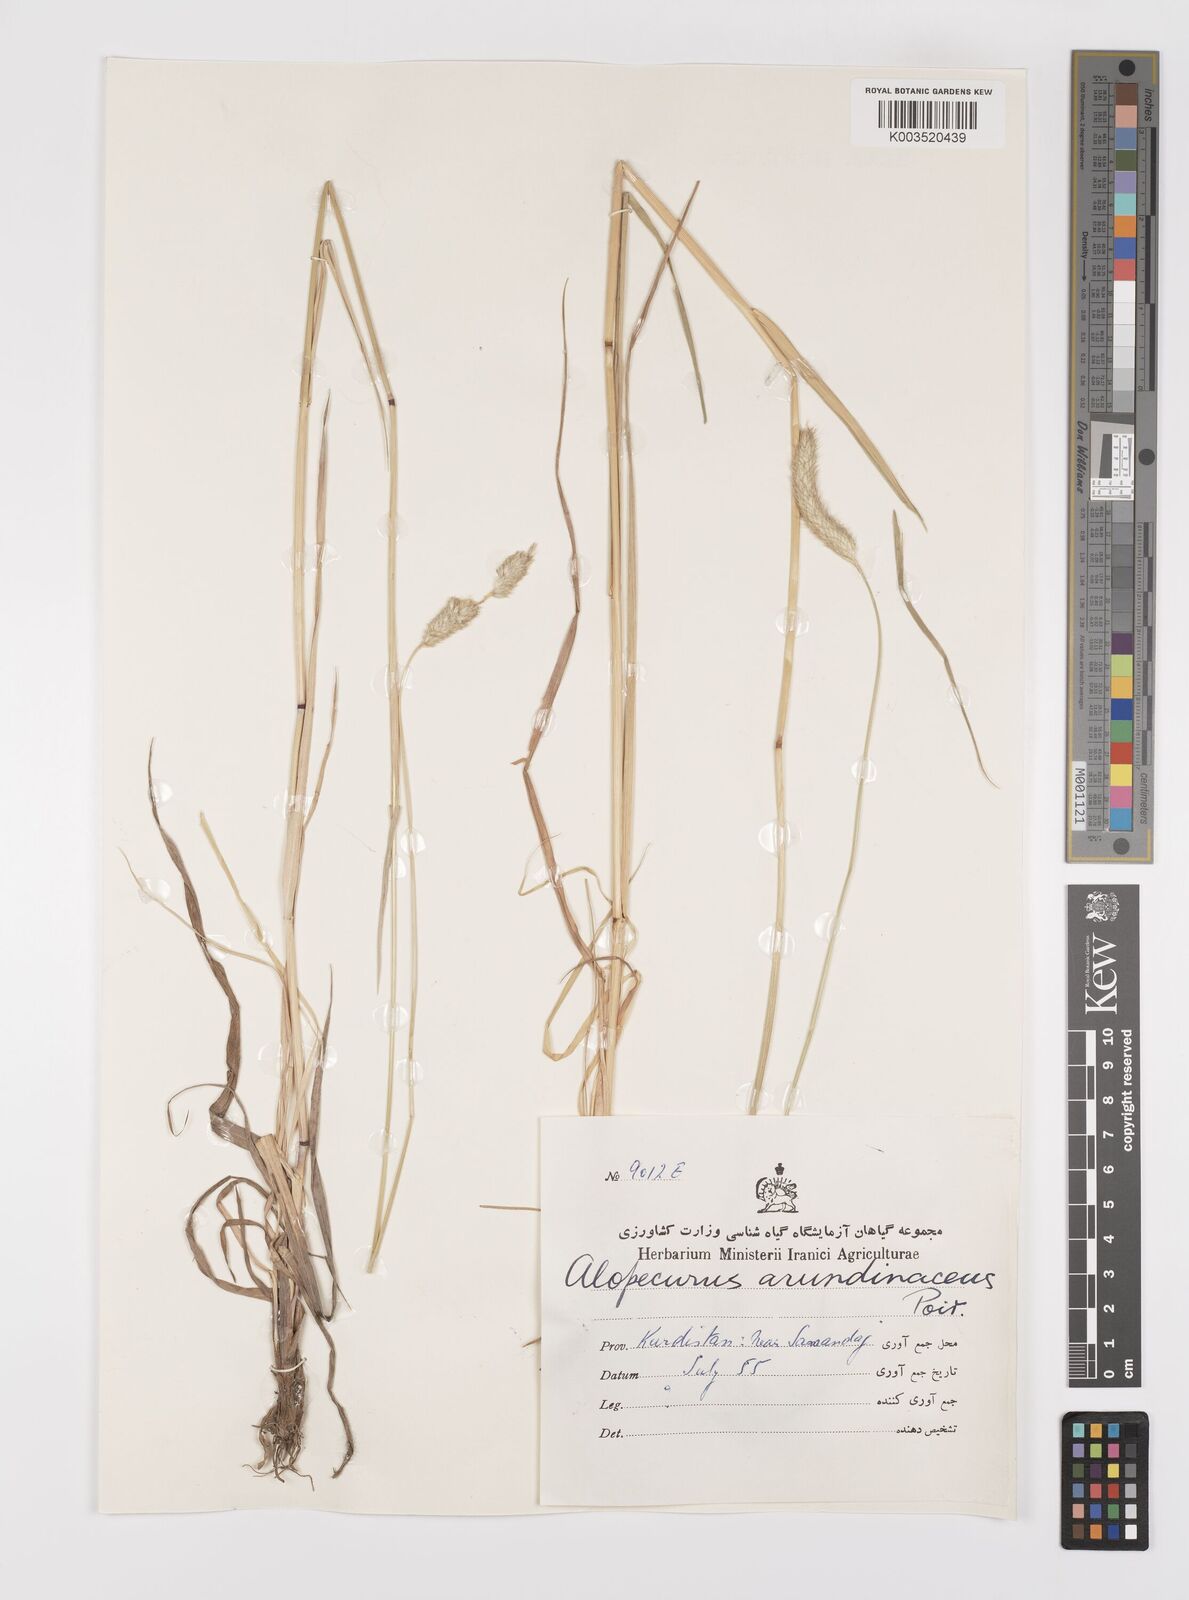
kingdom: Plantae
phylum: Tracheophyta
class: Liliopsida
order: Poales
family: Poaceae
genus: Alopecurus
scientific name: Alopecurus arundinaceus
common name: Creeping meadow foxtail
